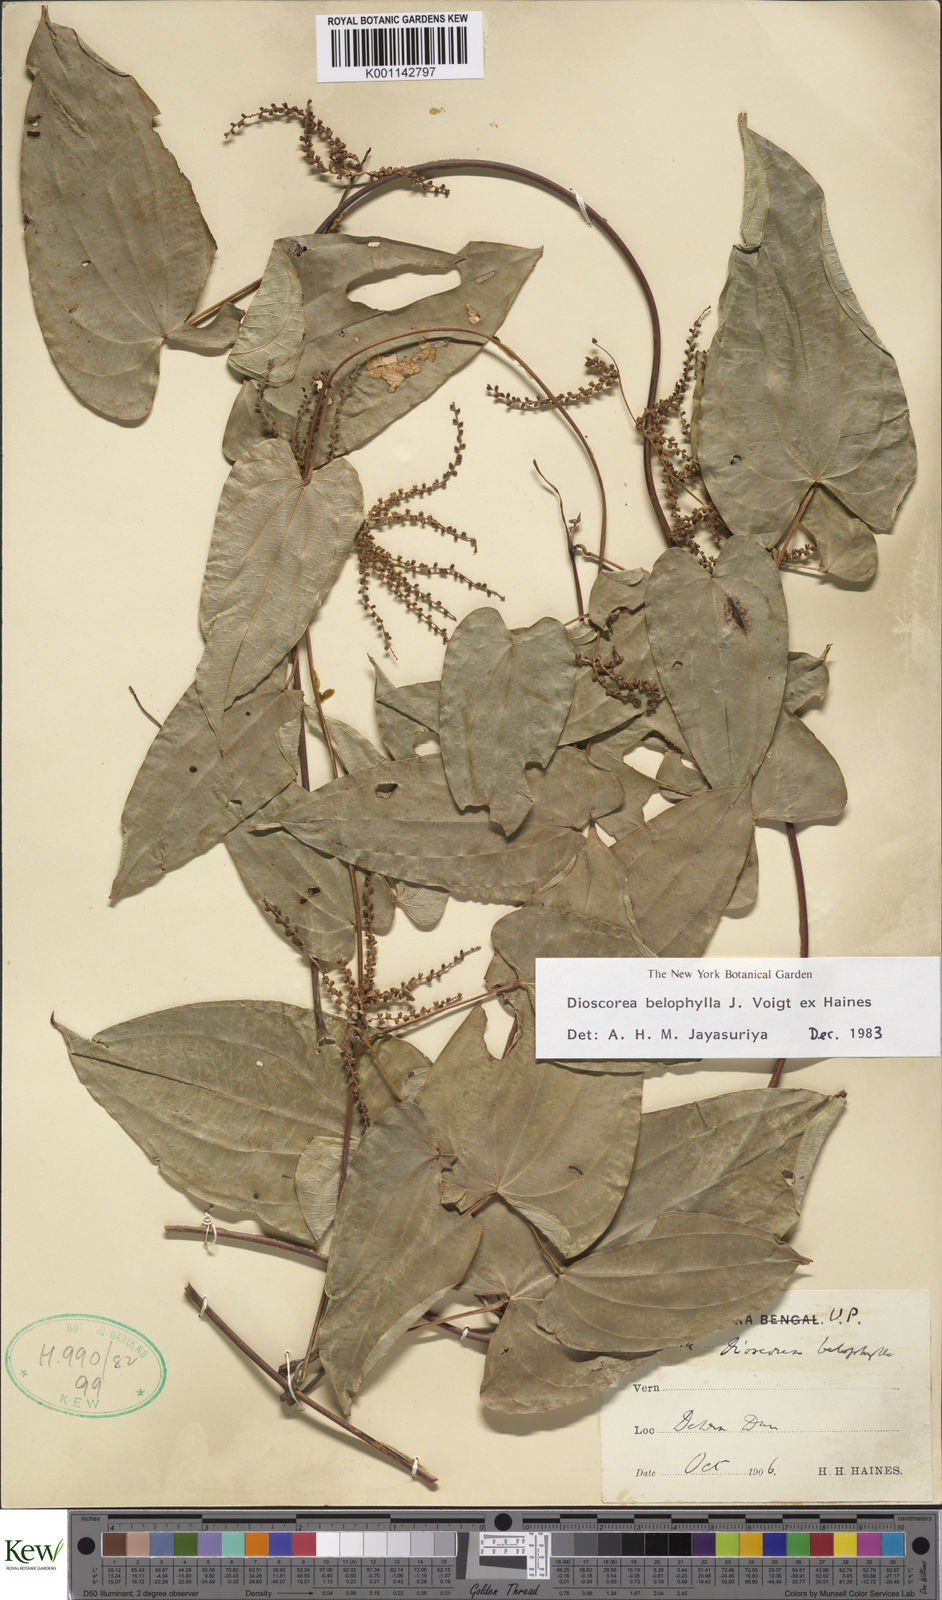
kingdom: Plantae
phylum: Tracheophyta
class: Liliopsida
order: Dioscoreales
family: Dioscoreaceae
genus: Dioscorea
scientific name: Dioscorea belophylla
